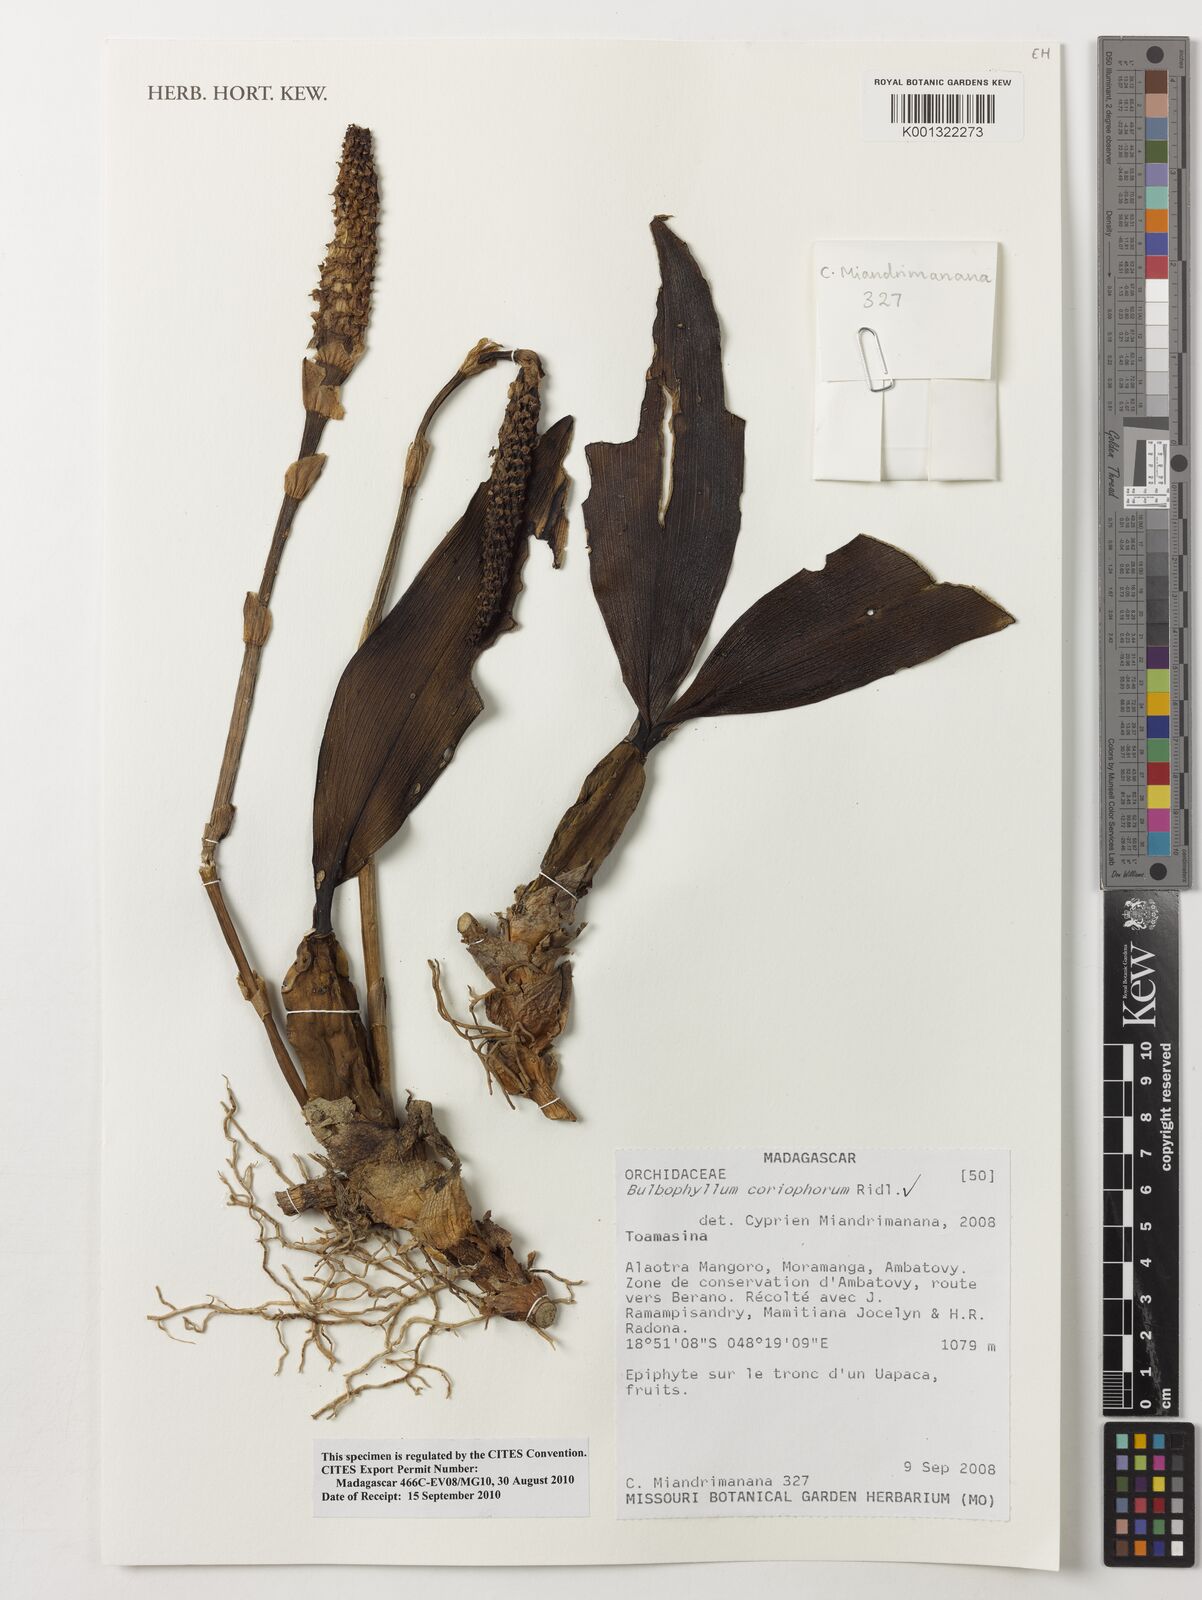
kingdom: Plantae
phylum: Tracheophyta
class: Liliopsida
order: Asparagales
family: Orchidaceae
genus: Bulbophyllum
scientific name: Bulbophyllum coriophorum
